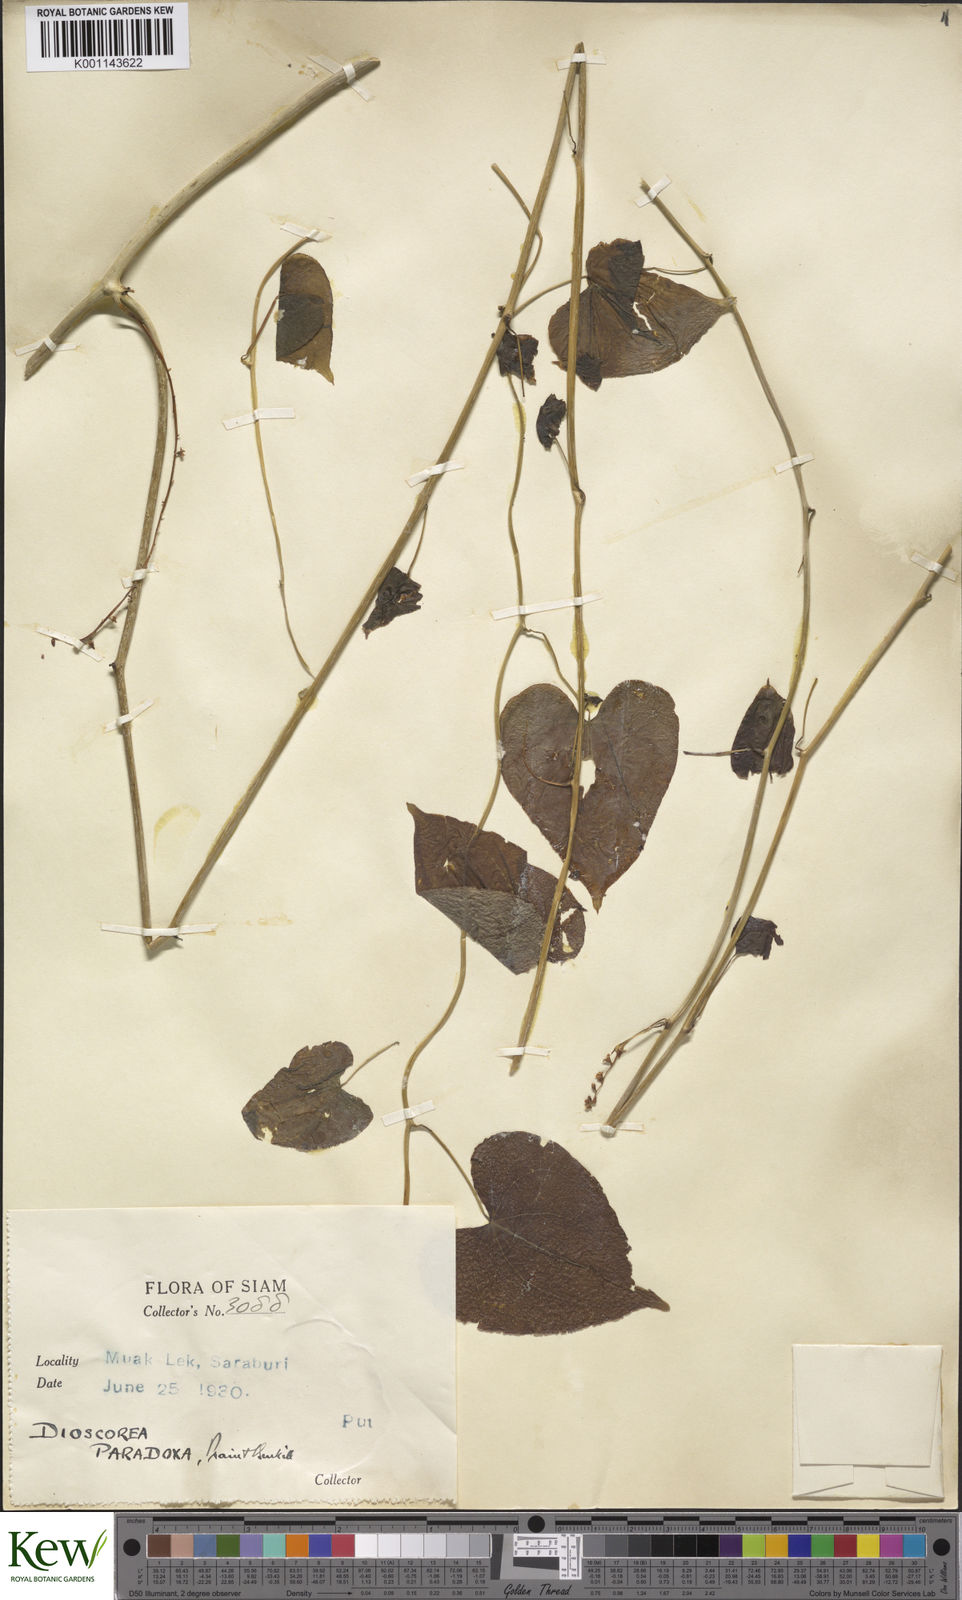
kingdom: Plantae
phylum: Tracheophyta
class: Liliopsida
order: Dioscoreales
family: Dioscoreaceae
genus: Dioscorea
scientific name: Dioscorea paradoxa
